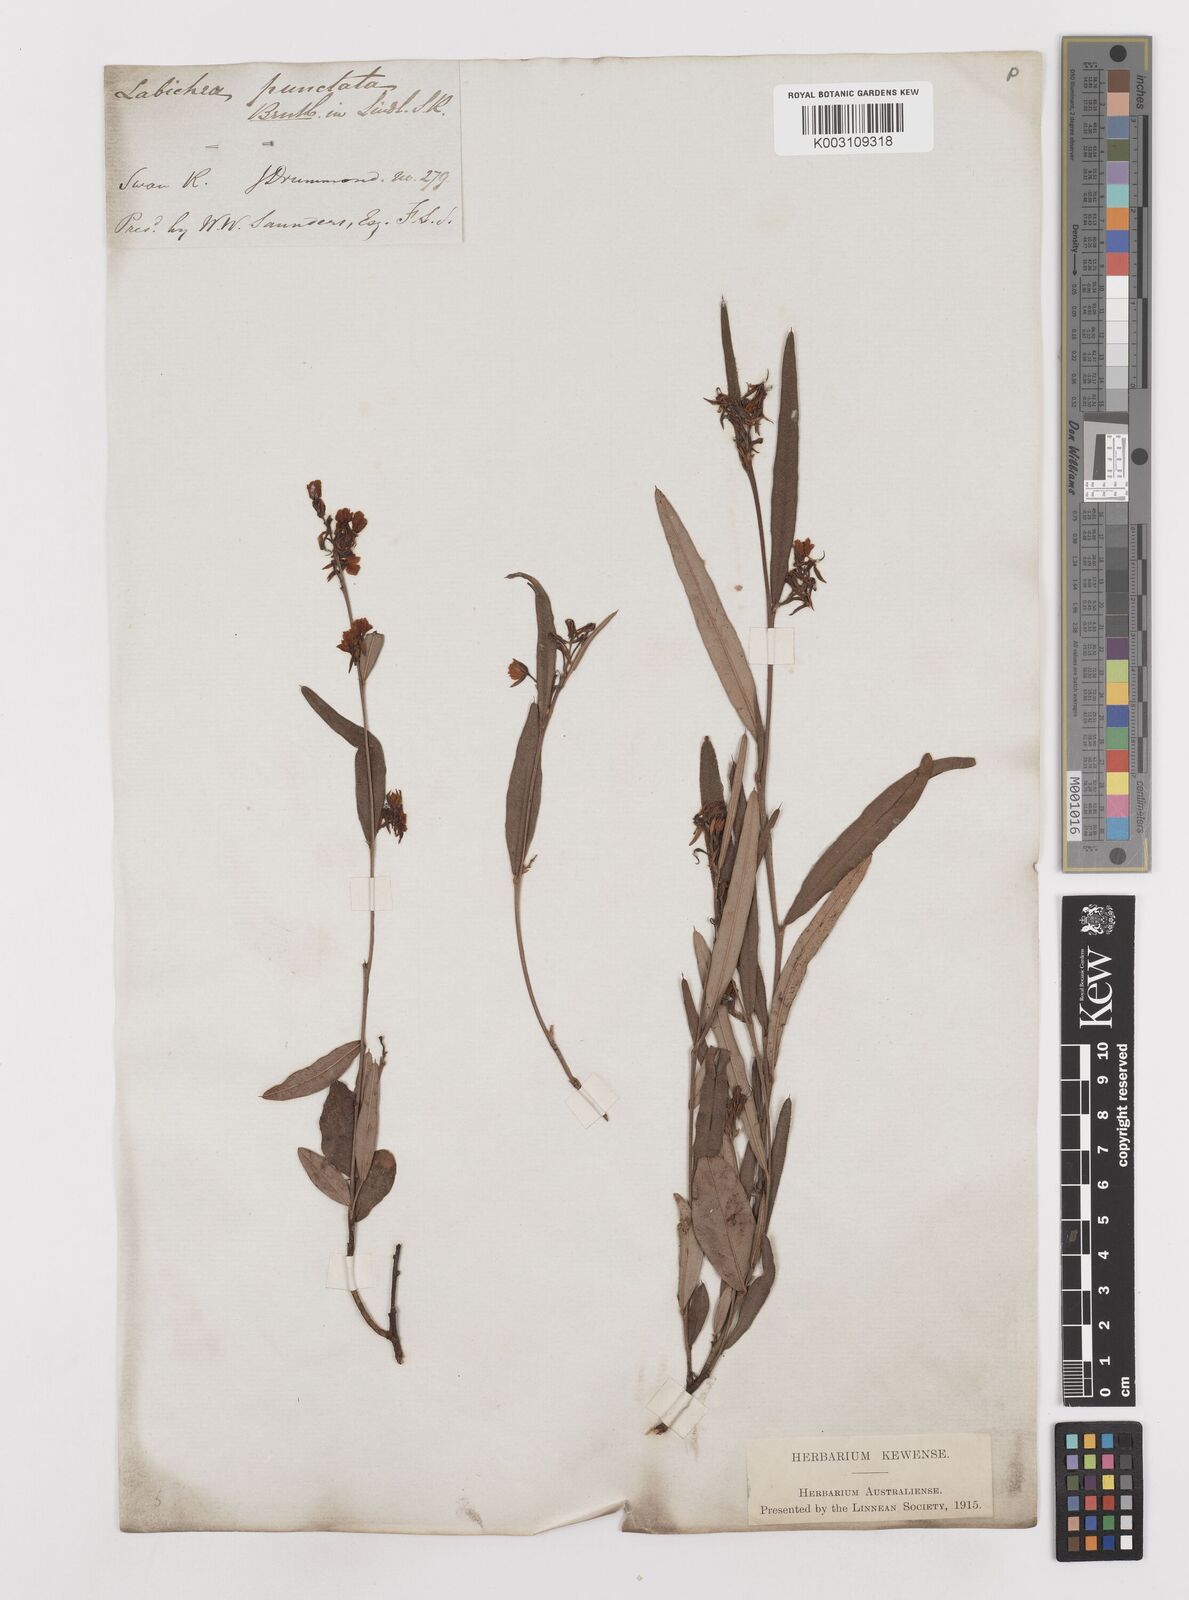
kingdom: Plantae
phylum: Tracheophyta
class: Magnoliopsida
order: Fabales
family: Fabaceae
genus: Labichea
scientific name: Labichea punctata
